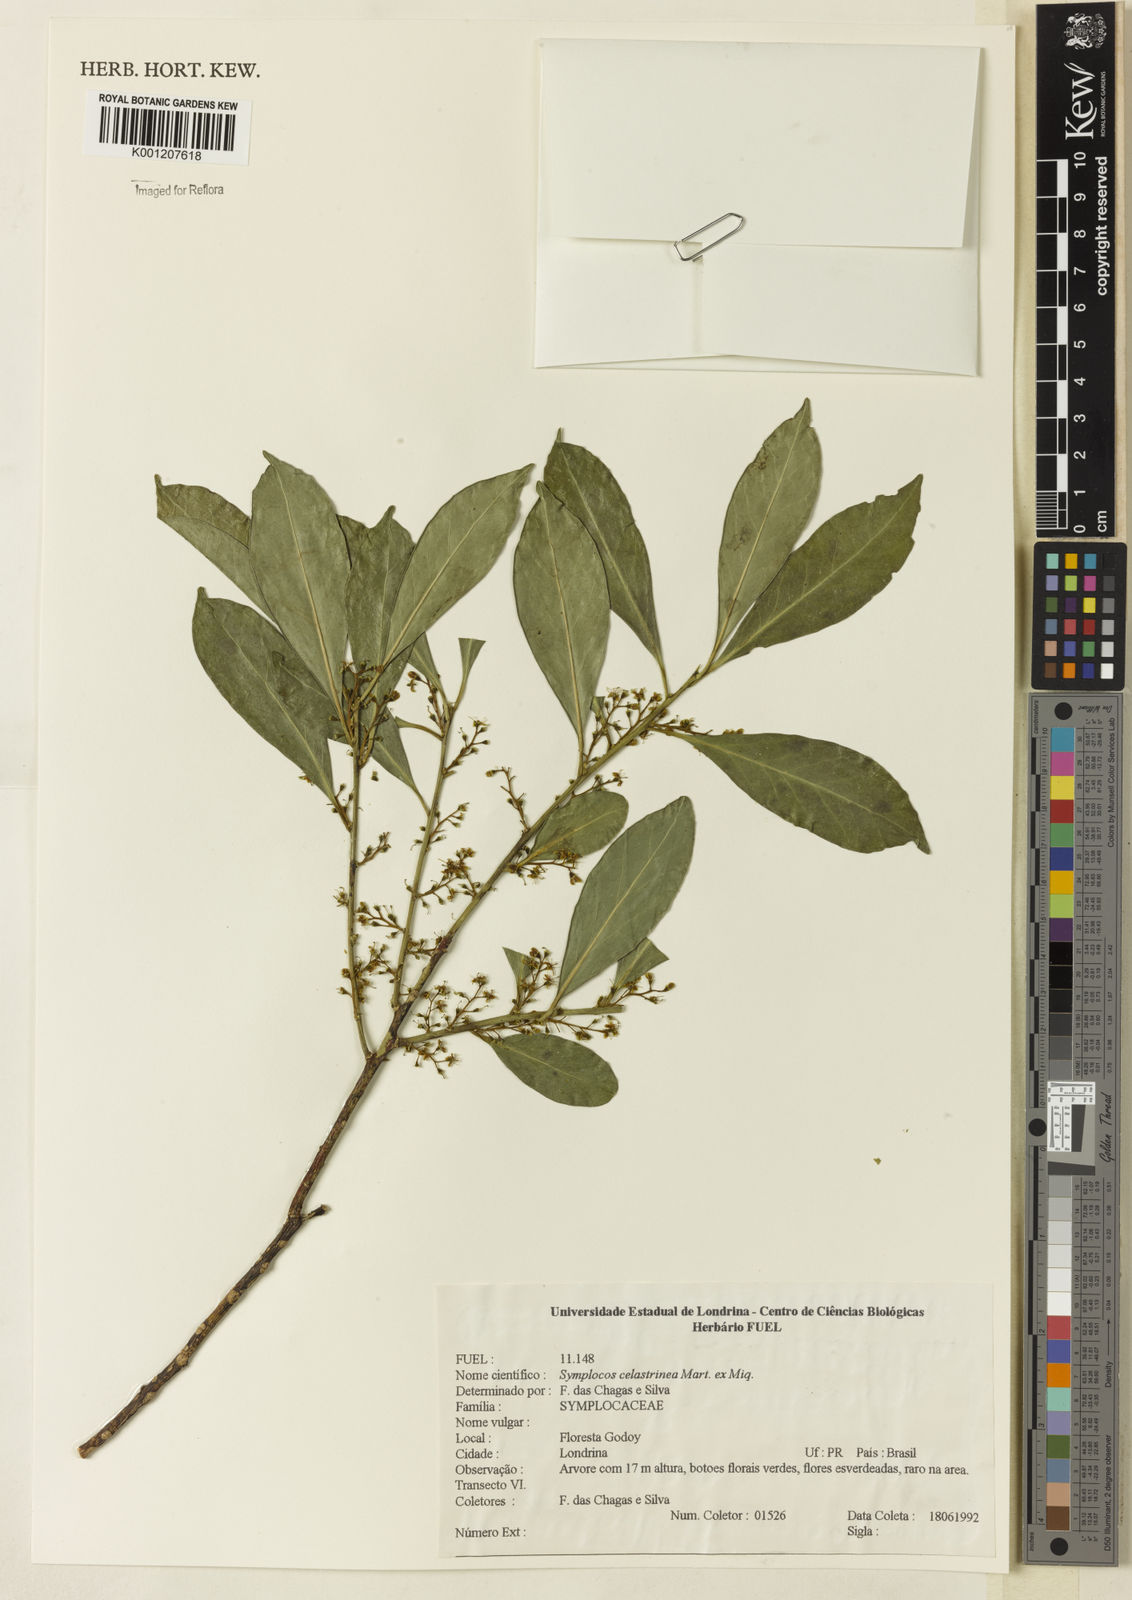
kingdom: Plantae
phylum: Tracheophyta
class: Magnoliopsida
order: Ericales
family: Symplocaceae
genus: Symplocos
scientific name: Symplocos
